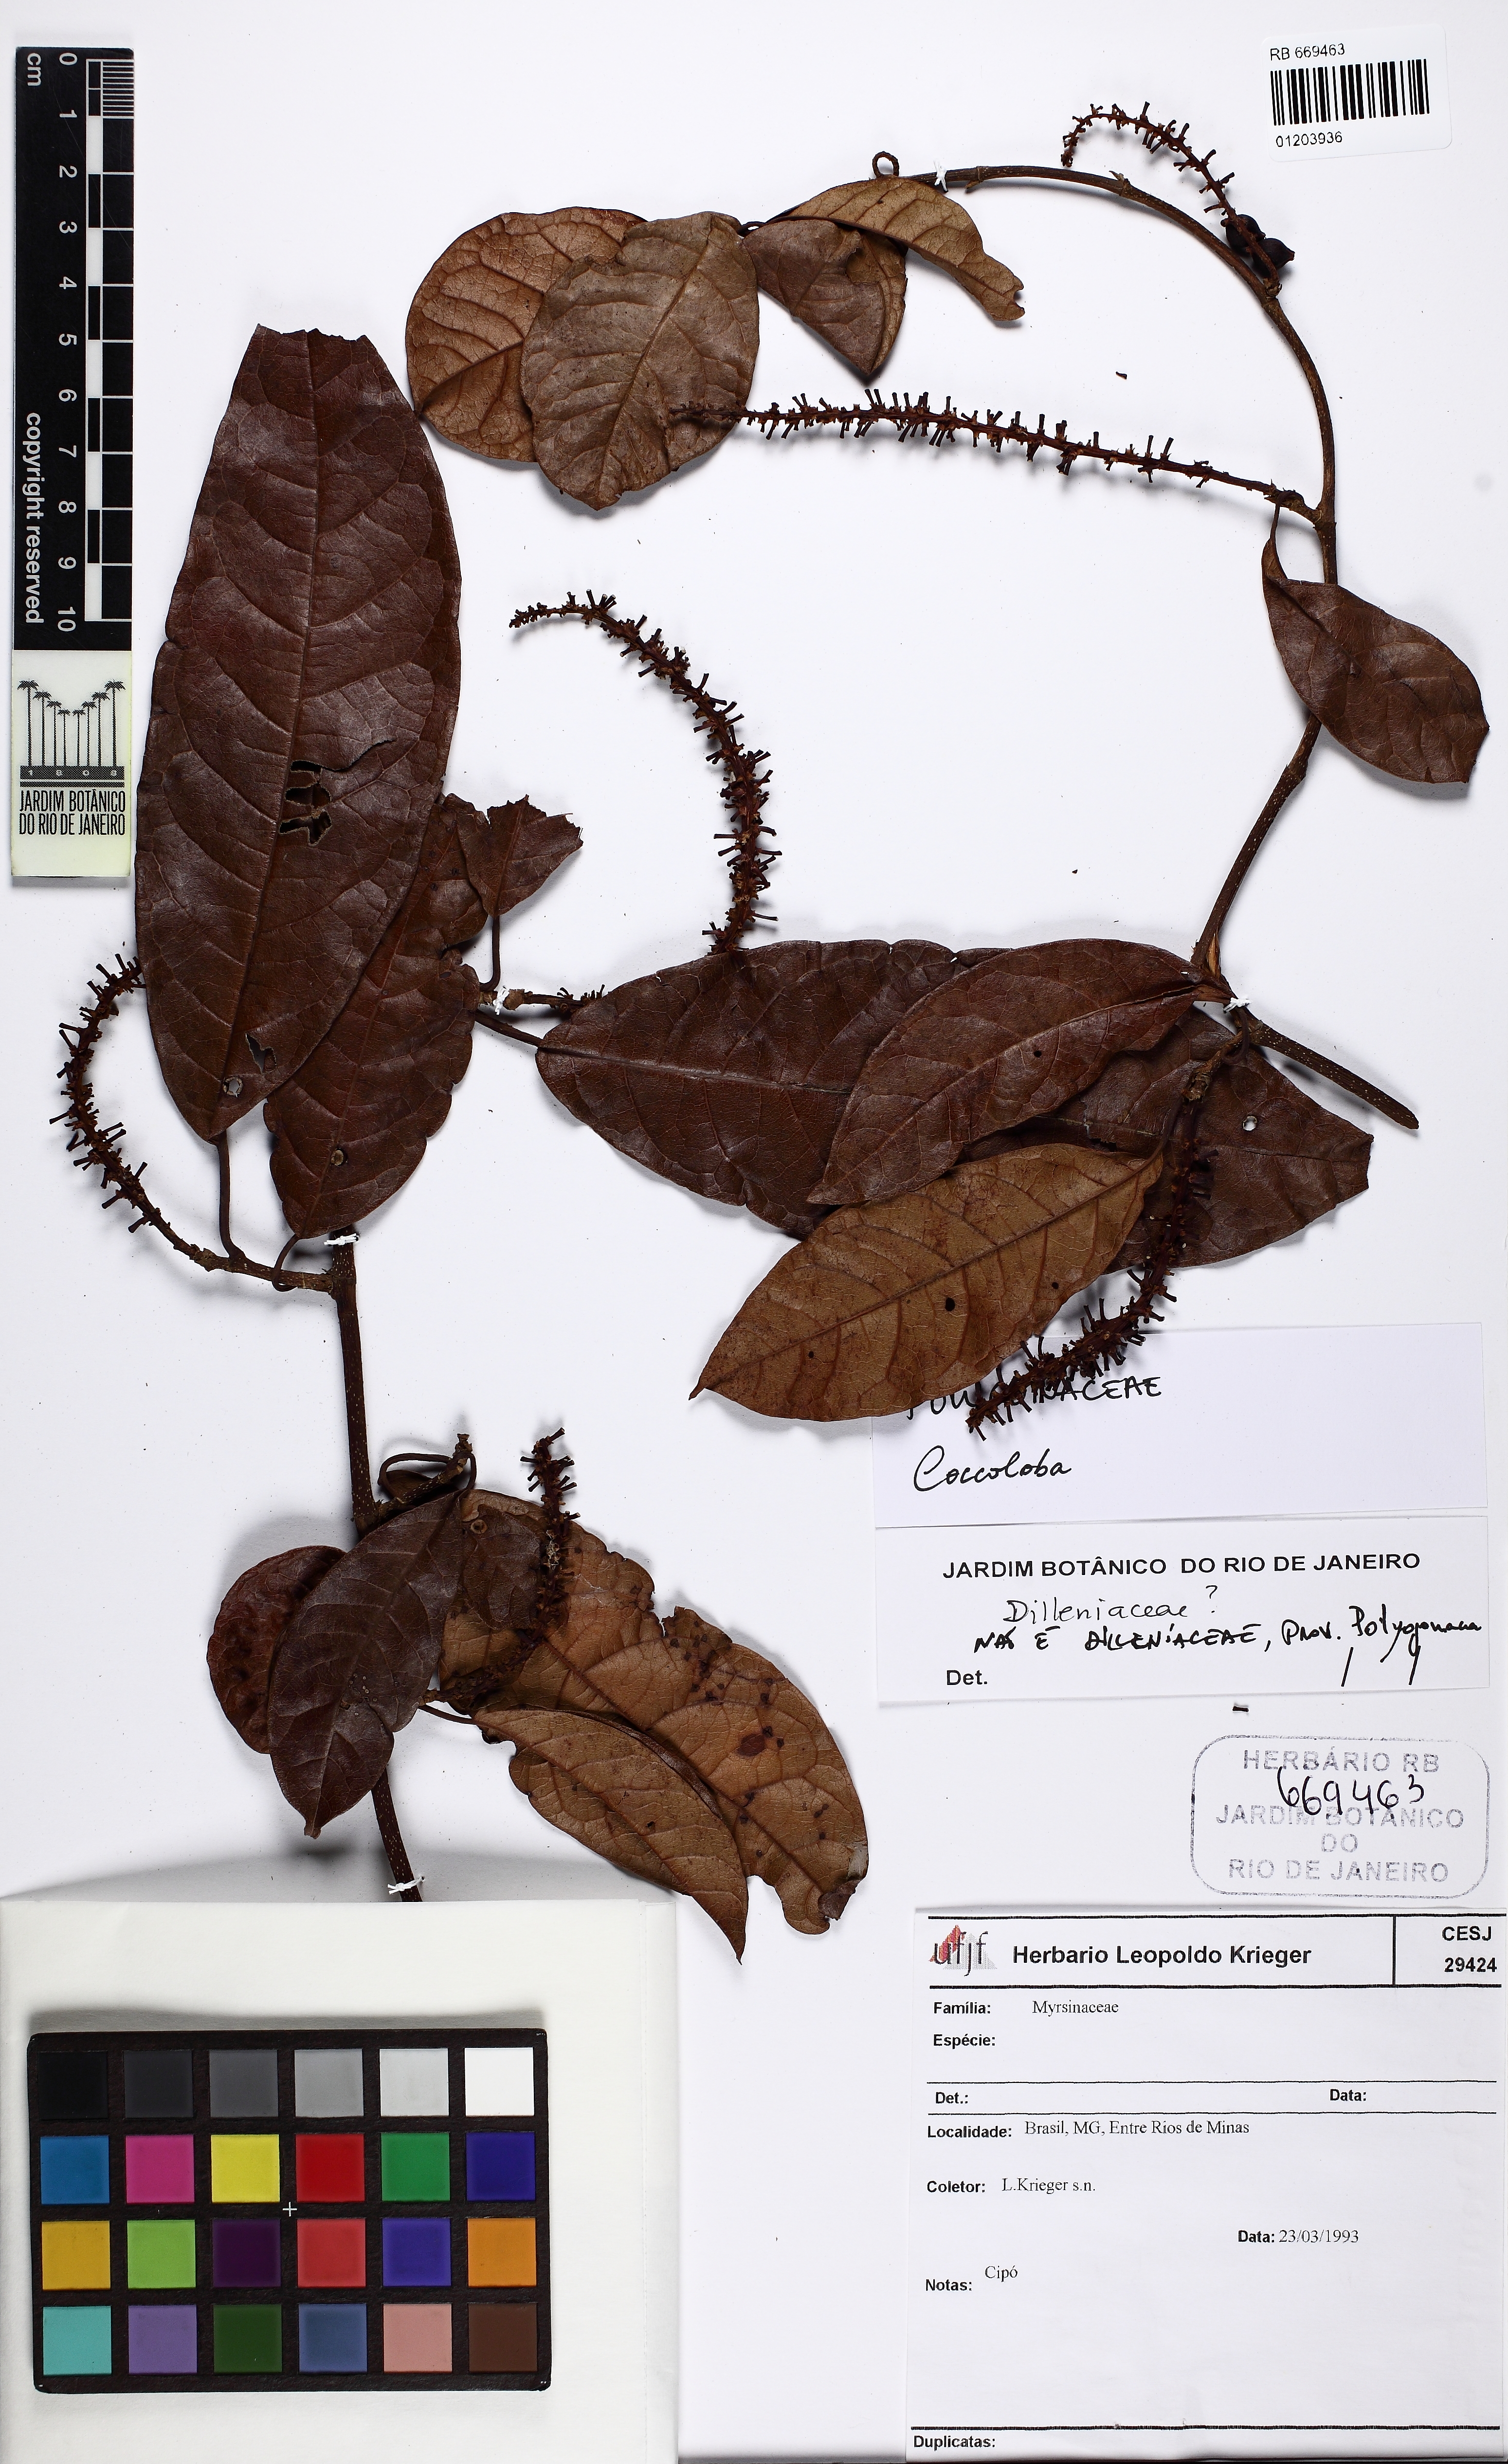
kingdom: Plantae
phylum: Tracheophyta
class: Magnoliopsida
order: Caryophyllales
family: Polygonaceae
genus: Coccoloba
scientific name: Coccoloba
